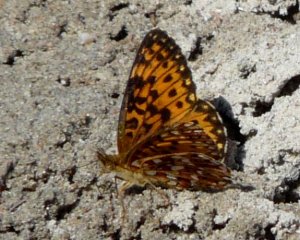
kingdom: Animalia
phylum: Arthropoda
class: Insecta
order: Lepidoptera
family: Nymphalidae
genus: Boloria
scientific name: Boloria selene
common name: Silver-bordered Fritillary
